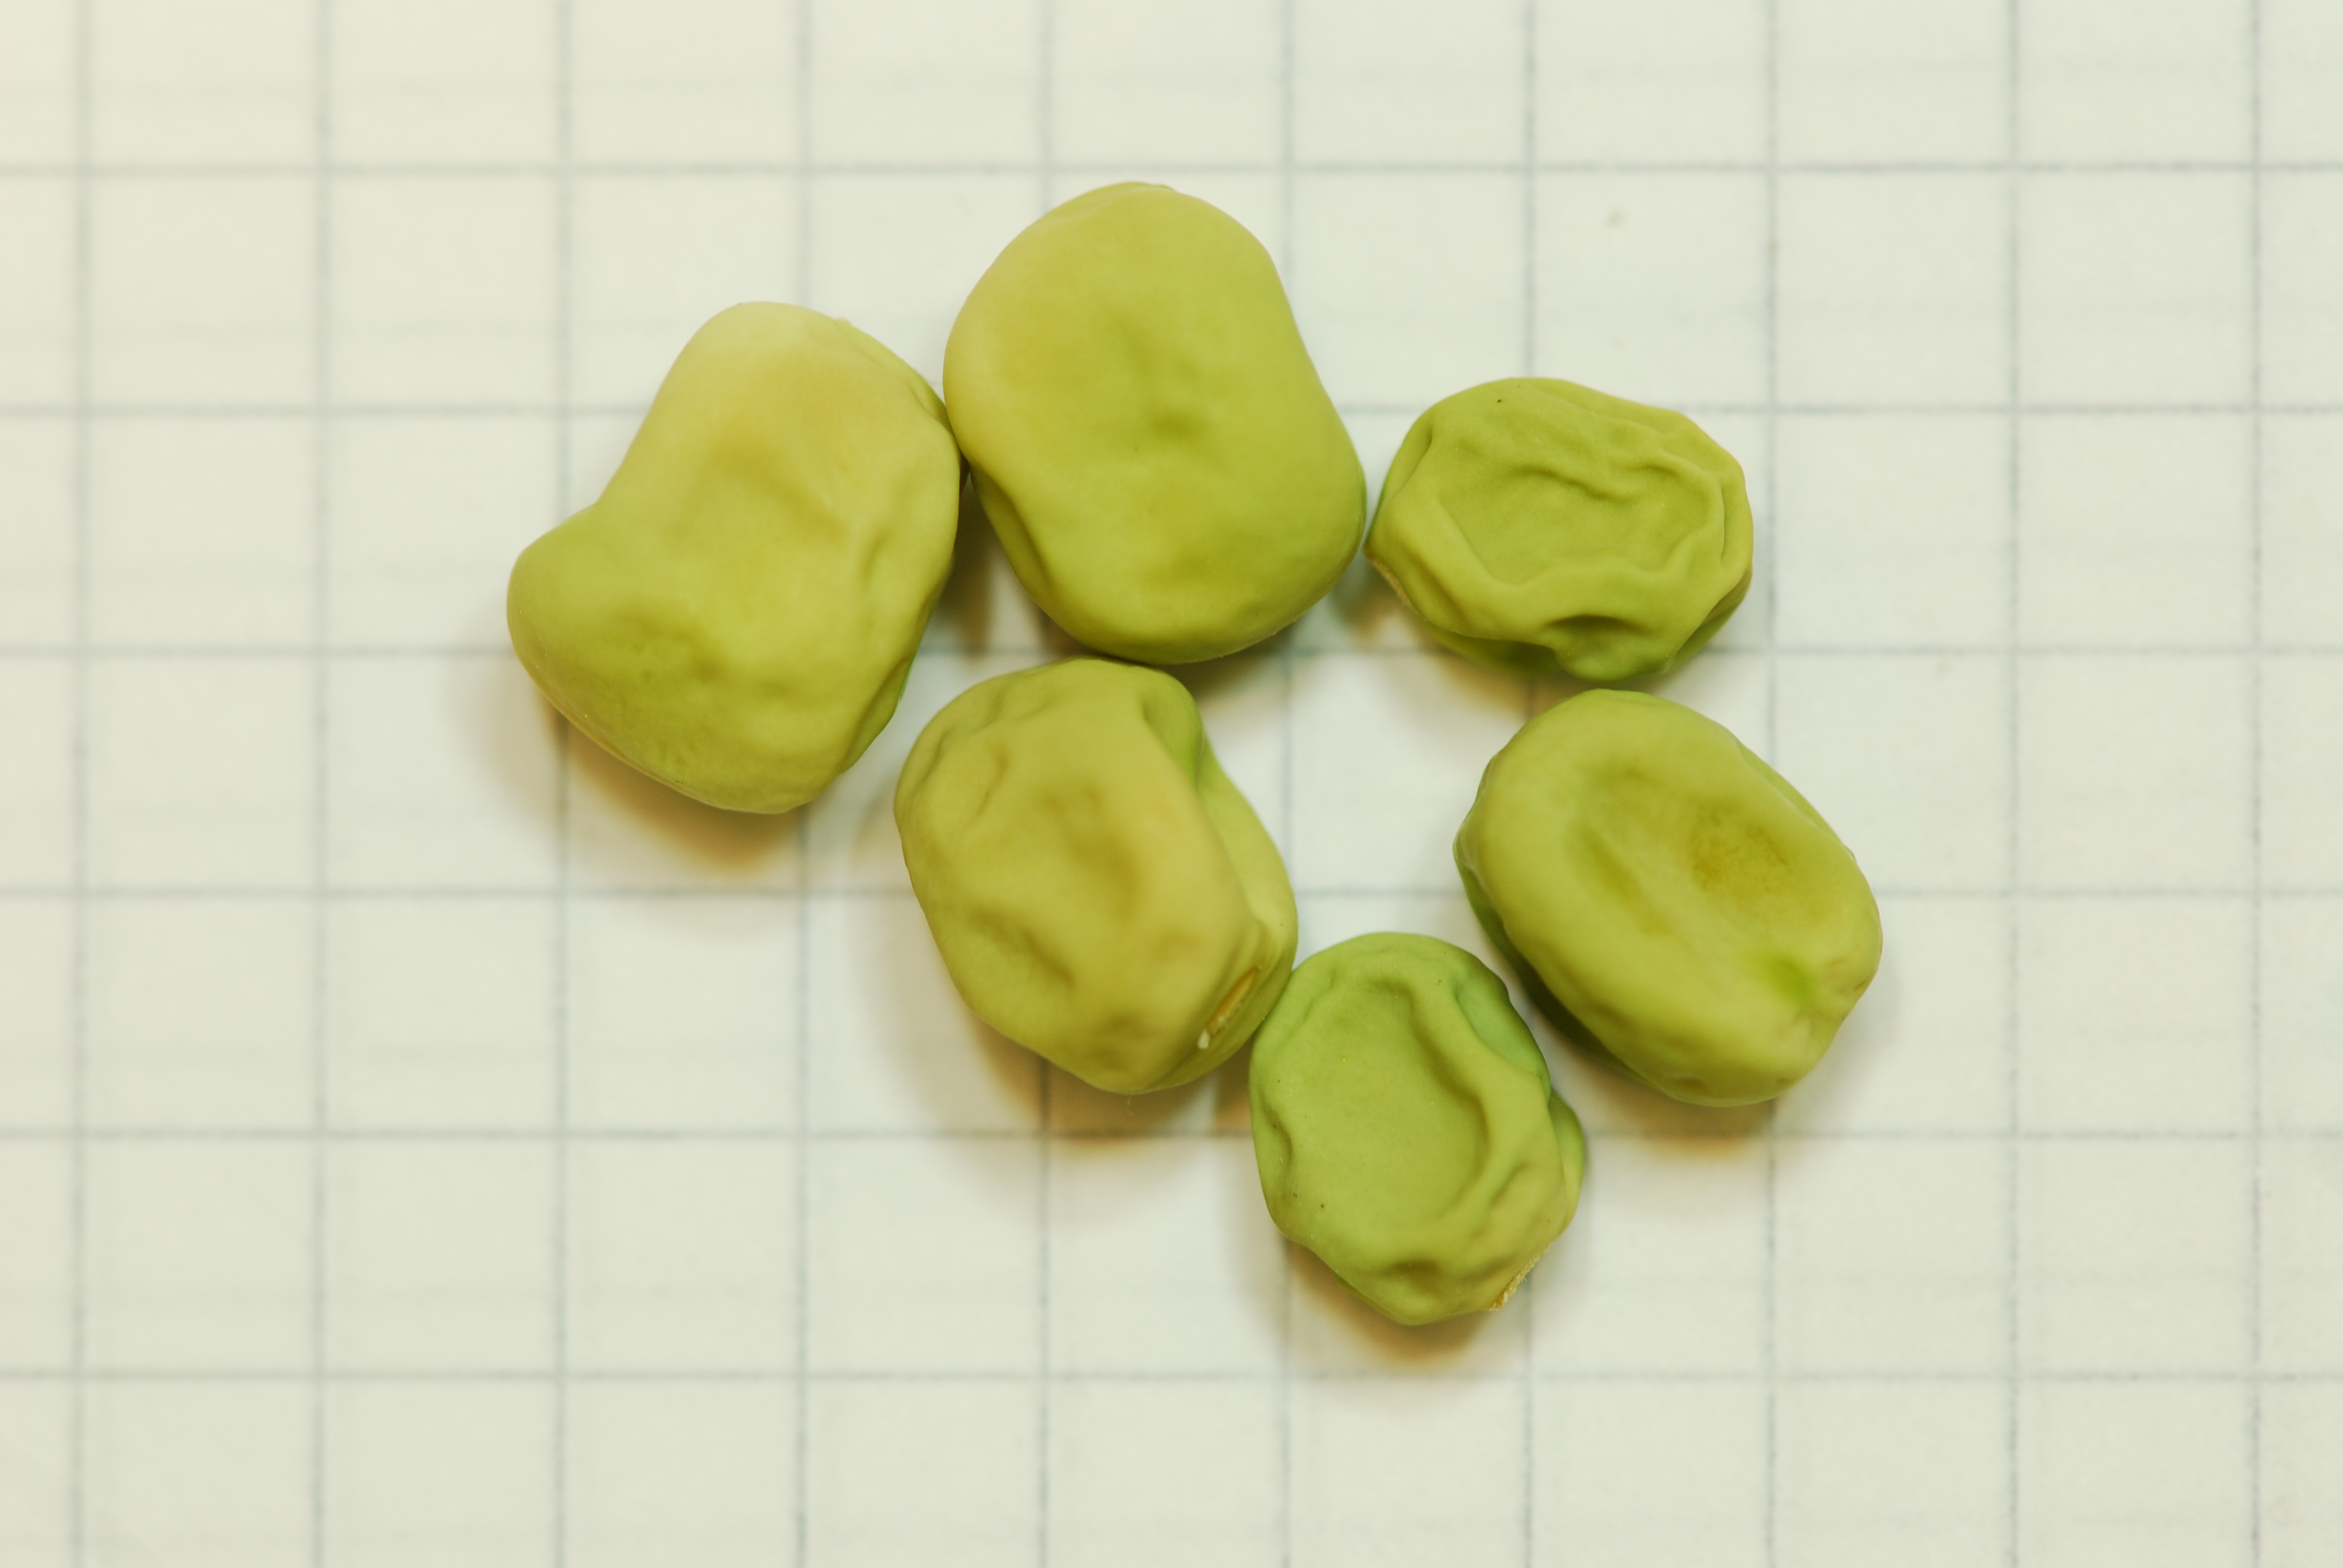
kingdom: Plantae
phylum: Tracheophyta
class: Magnoliopsida
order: Fabales
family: Fabaceae
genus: Lathyrus
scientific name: Lathyrus oleraceus
